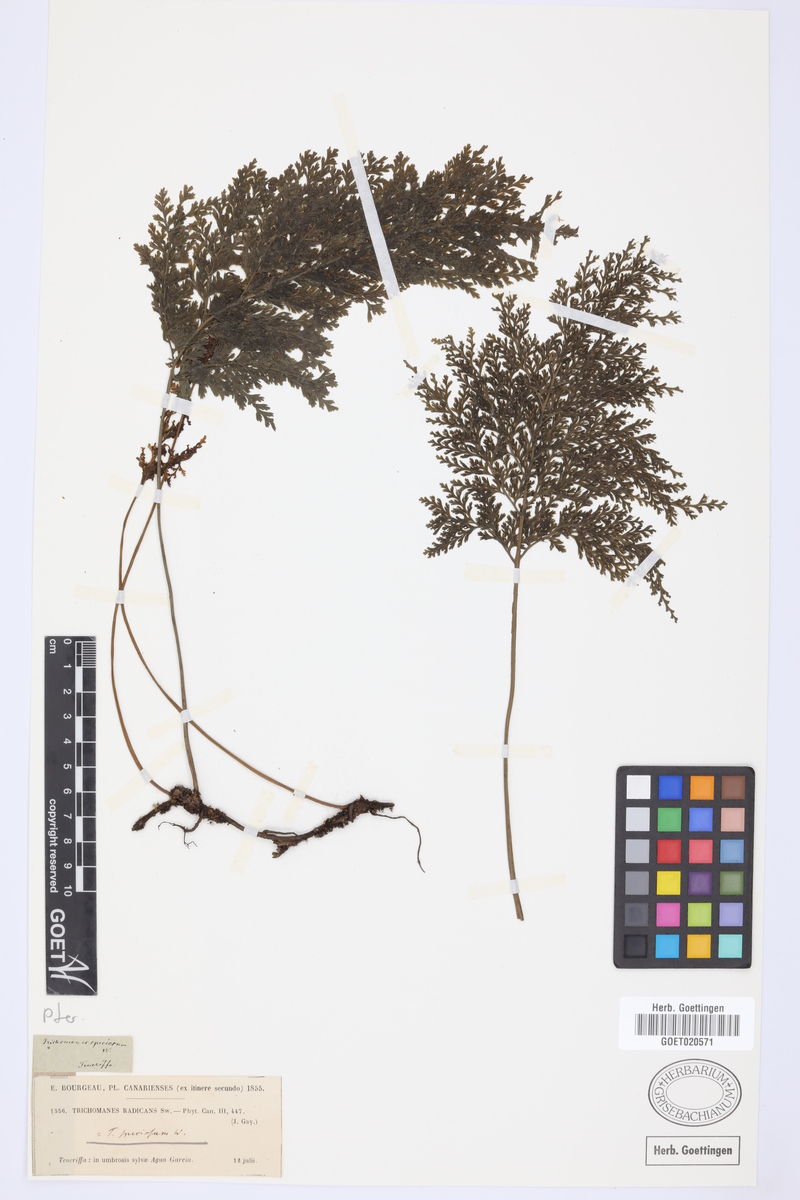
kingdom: Plantae
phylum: Tracheophyta
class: Polypodiopsida
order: Hymenophyllales
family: Hymenophyllaceae
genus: Vandenboschia
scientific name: Vandenboschia speciosa
